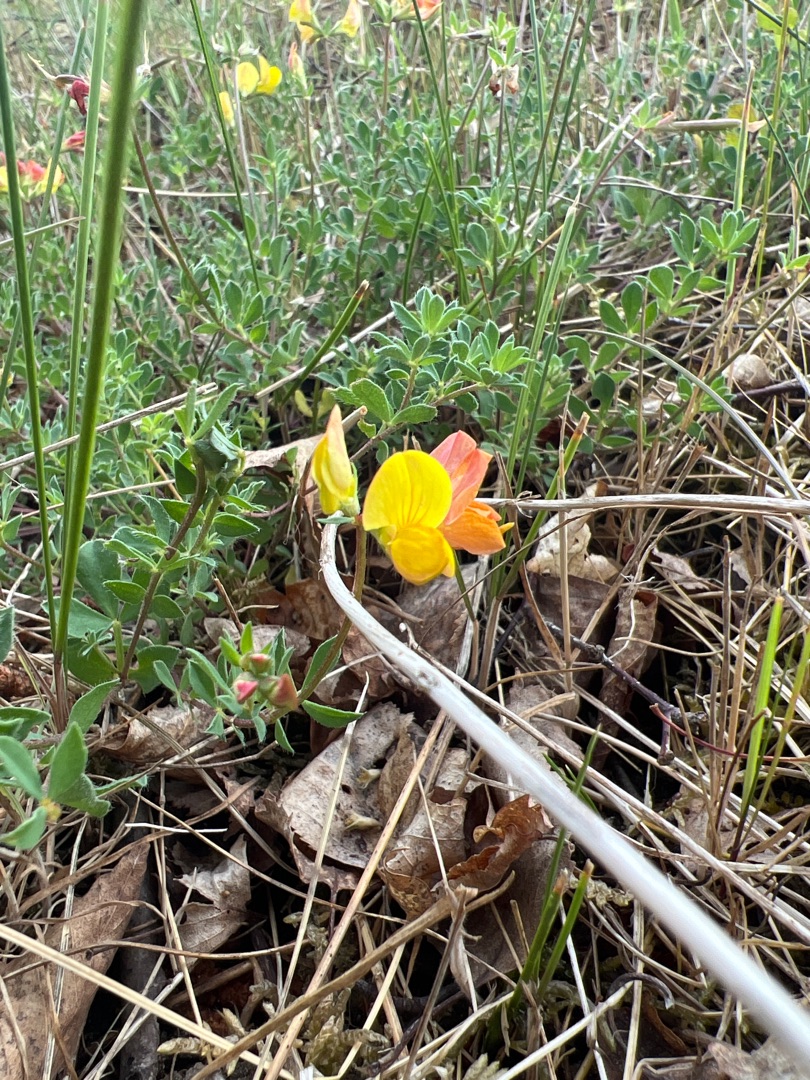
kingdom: Plantae
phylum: Tracheophyta
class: Magnoliopsida
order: Fabales
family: Fabaceae
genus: Lotus
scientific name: Lotus corniculatus
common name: Almindelig kællingetand
